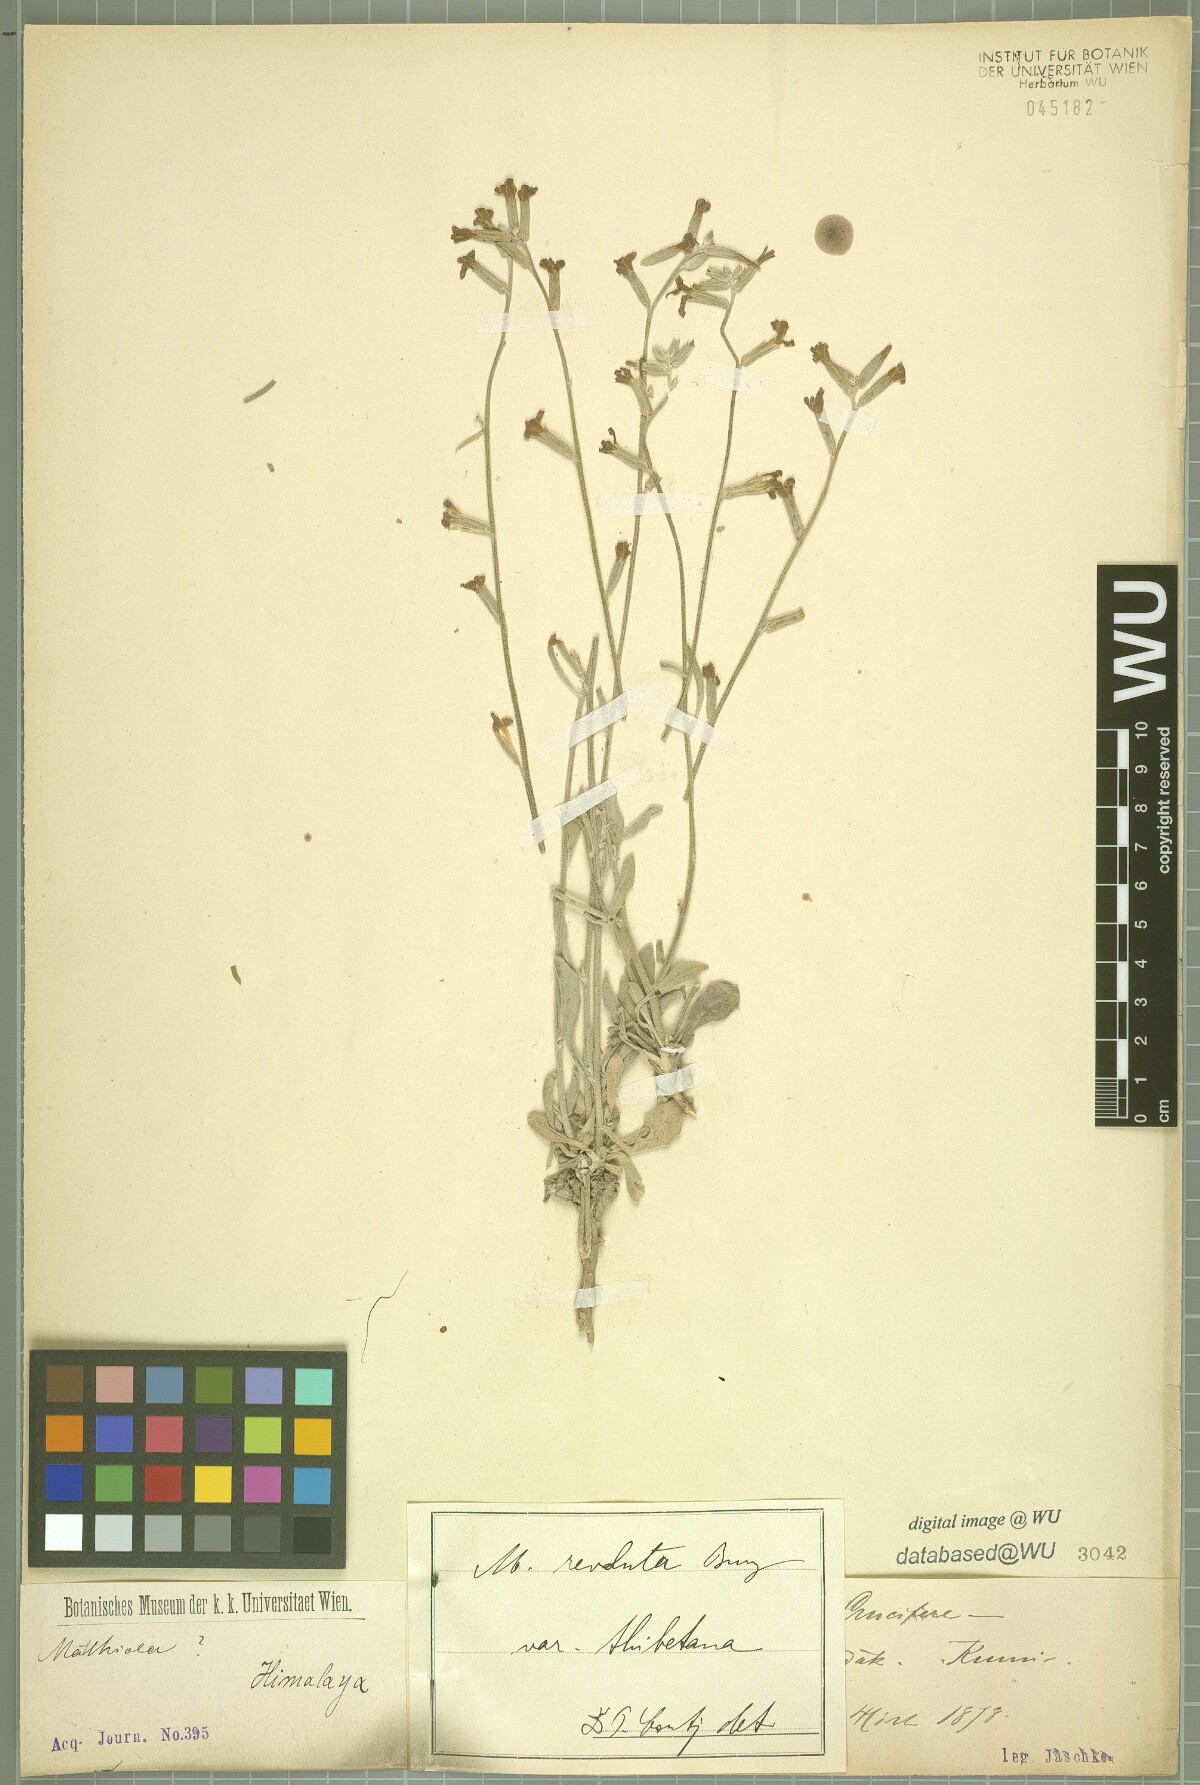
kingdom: Plantae
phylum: Tracheophyta
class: Magnoliopsida
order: Brassicales
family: Brassicaceae
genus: Matthiola
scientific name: Matthiola revoluta
